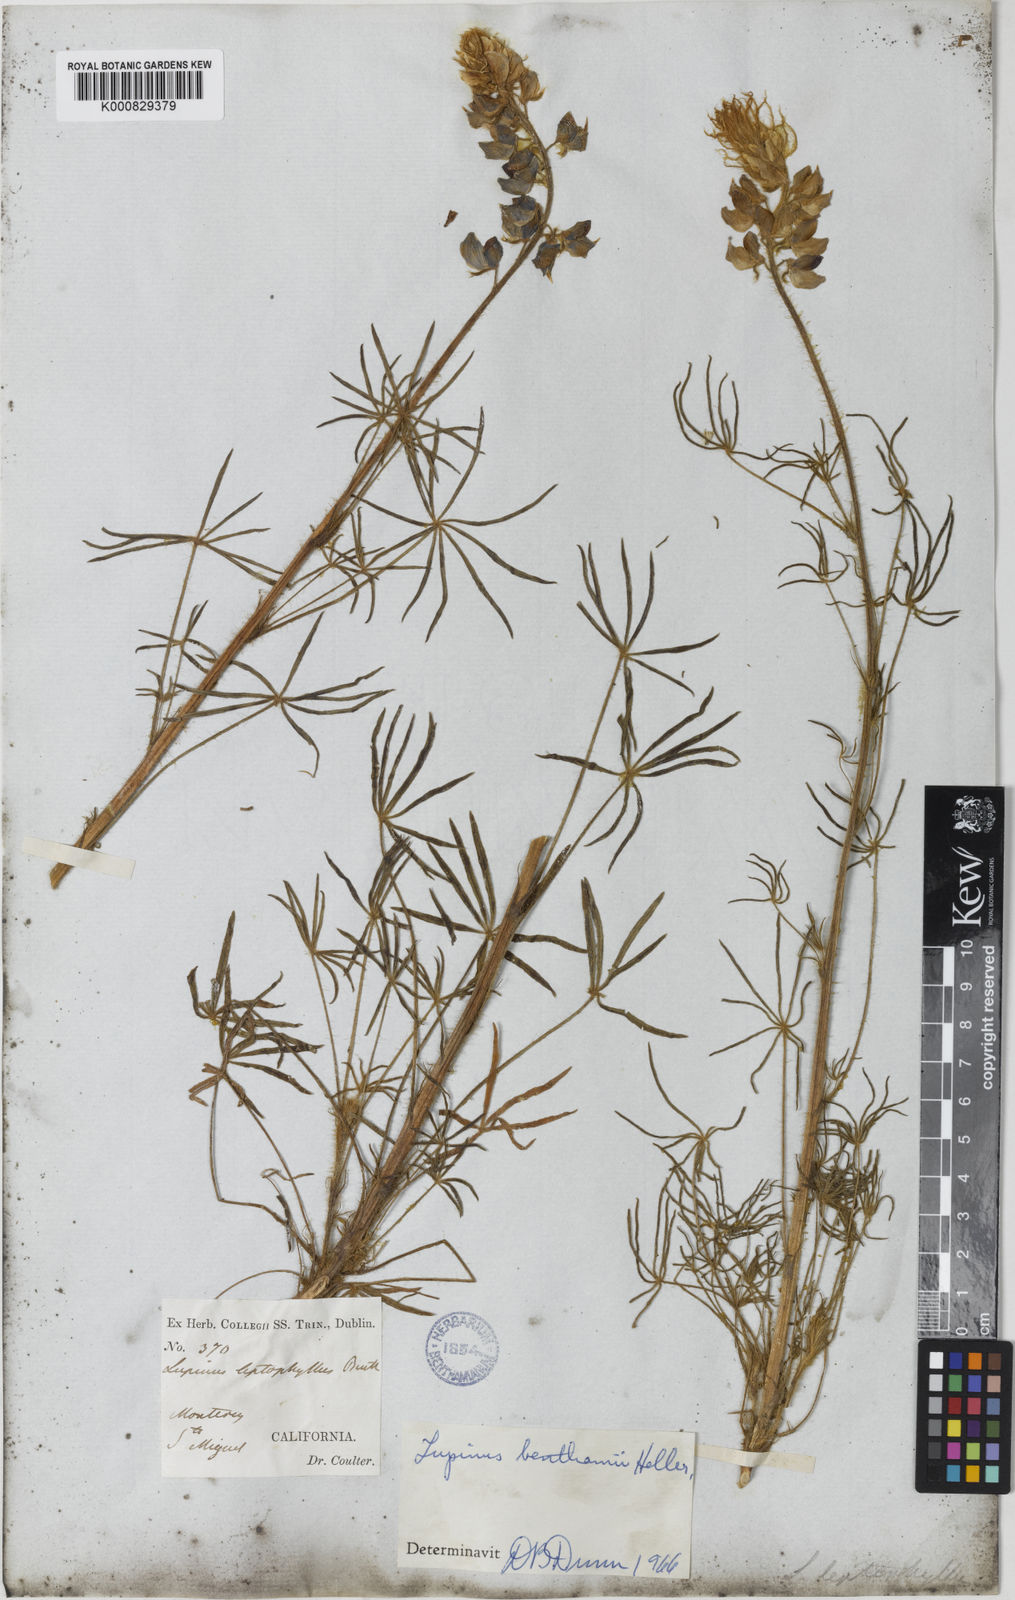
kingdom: Plantae
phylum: Tracheophyta
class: Magnoliopsida
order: Fabales
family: Fabaceae
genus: Lupinus
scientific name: Lupinus benthamii
